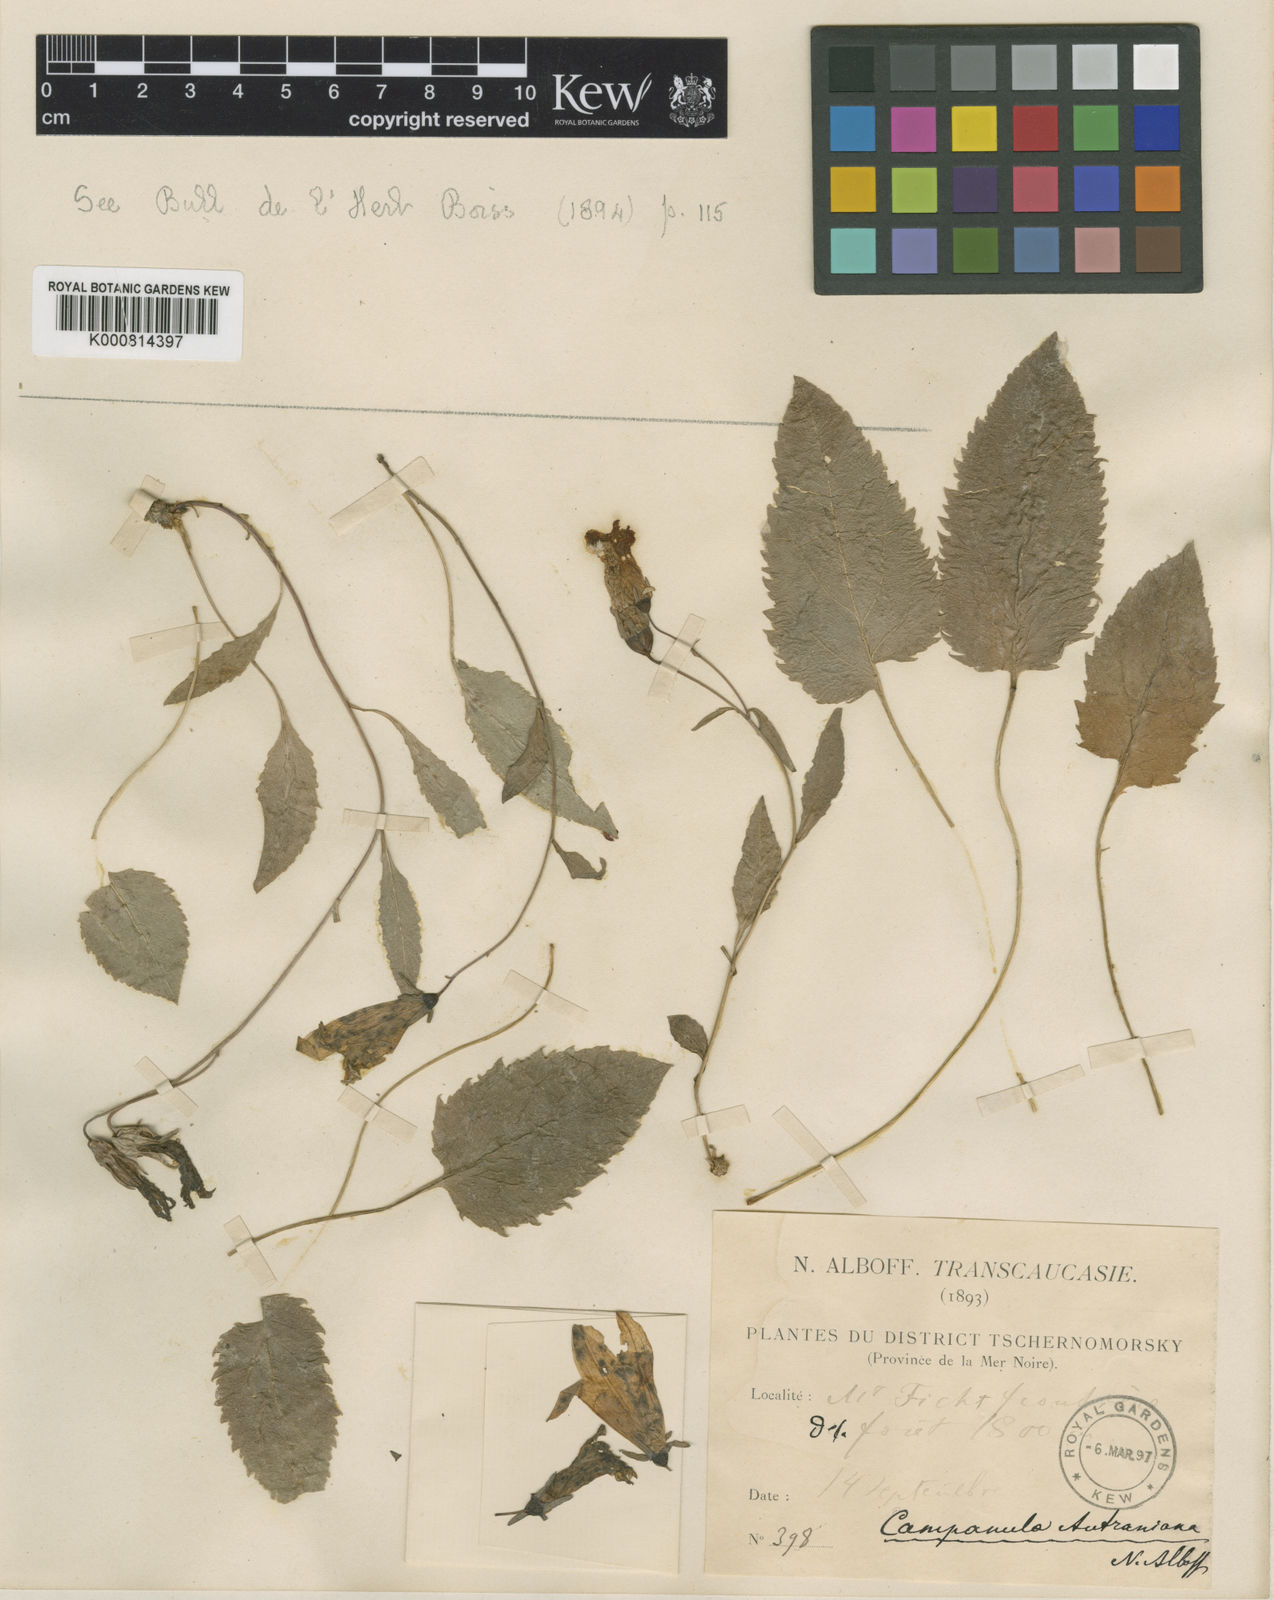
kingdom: Plantae
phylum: Tracheophyta
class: Magnoliopsida
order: Asterales
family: Campanulaceae
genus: Campanula
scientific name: Campanula autraniana
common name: Autran's campanula
